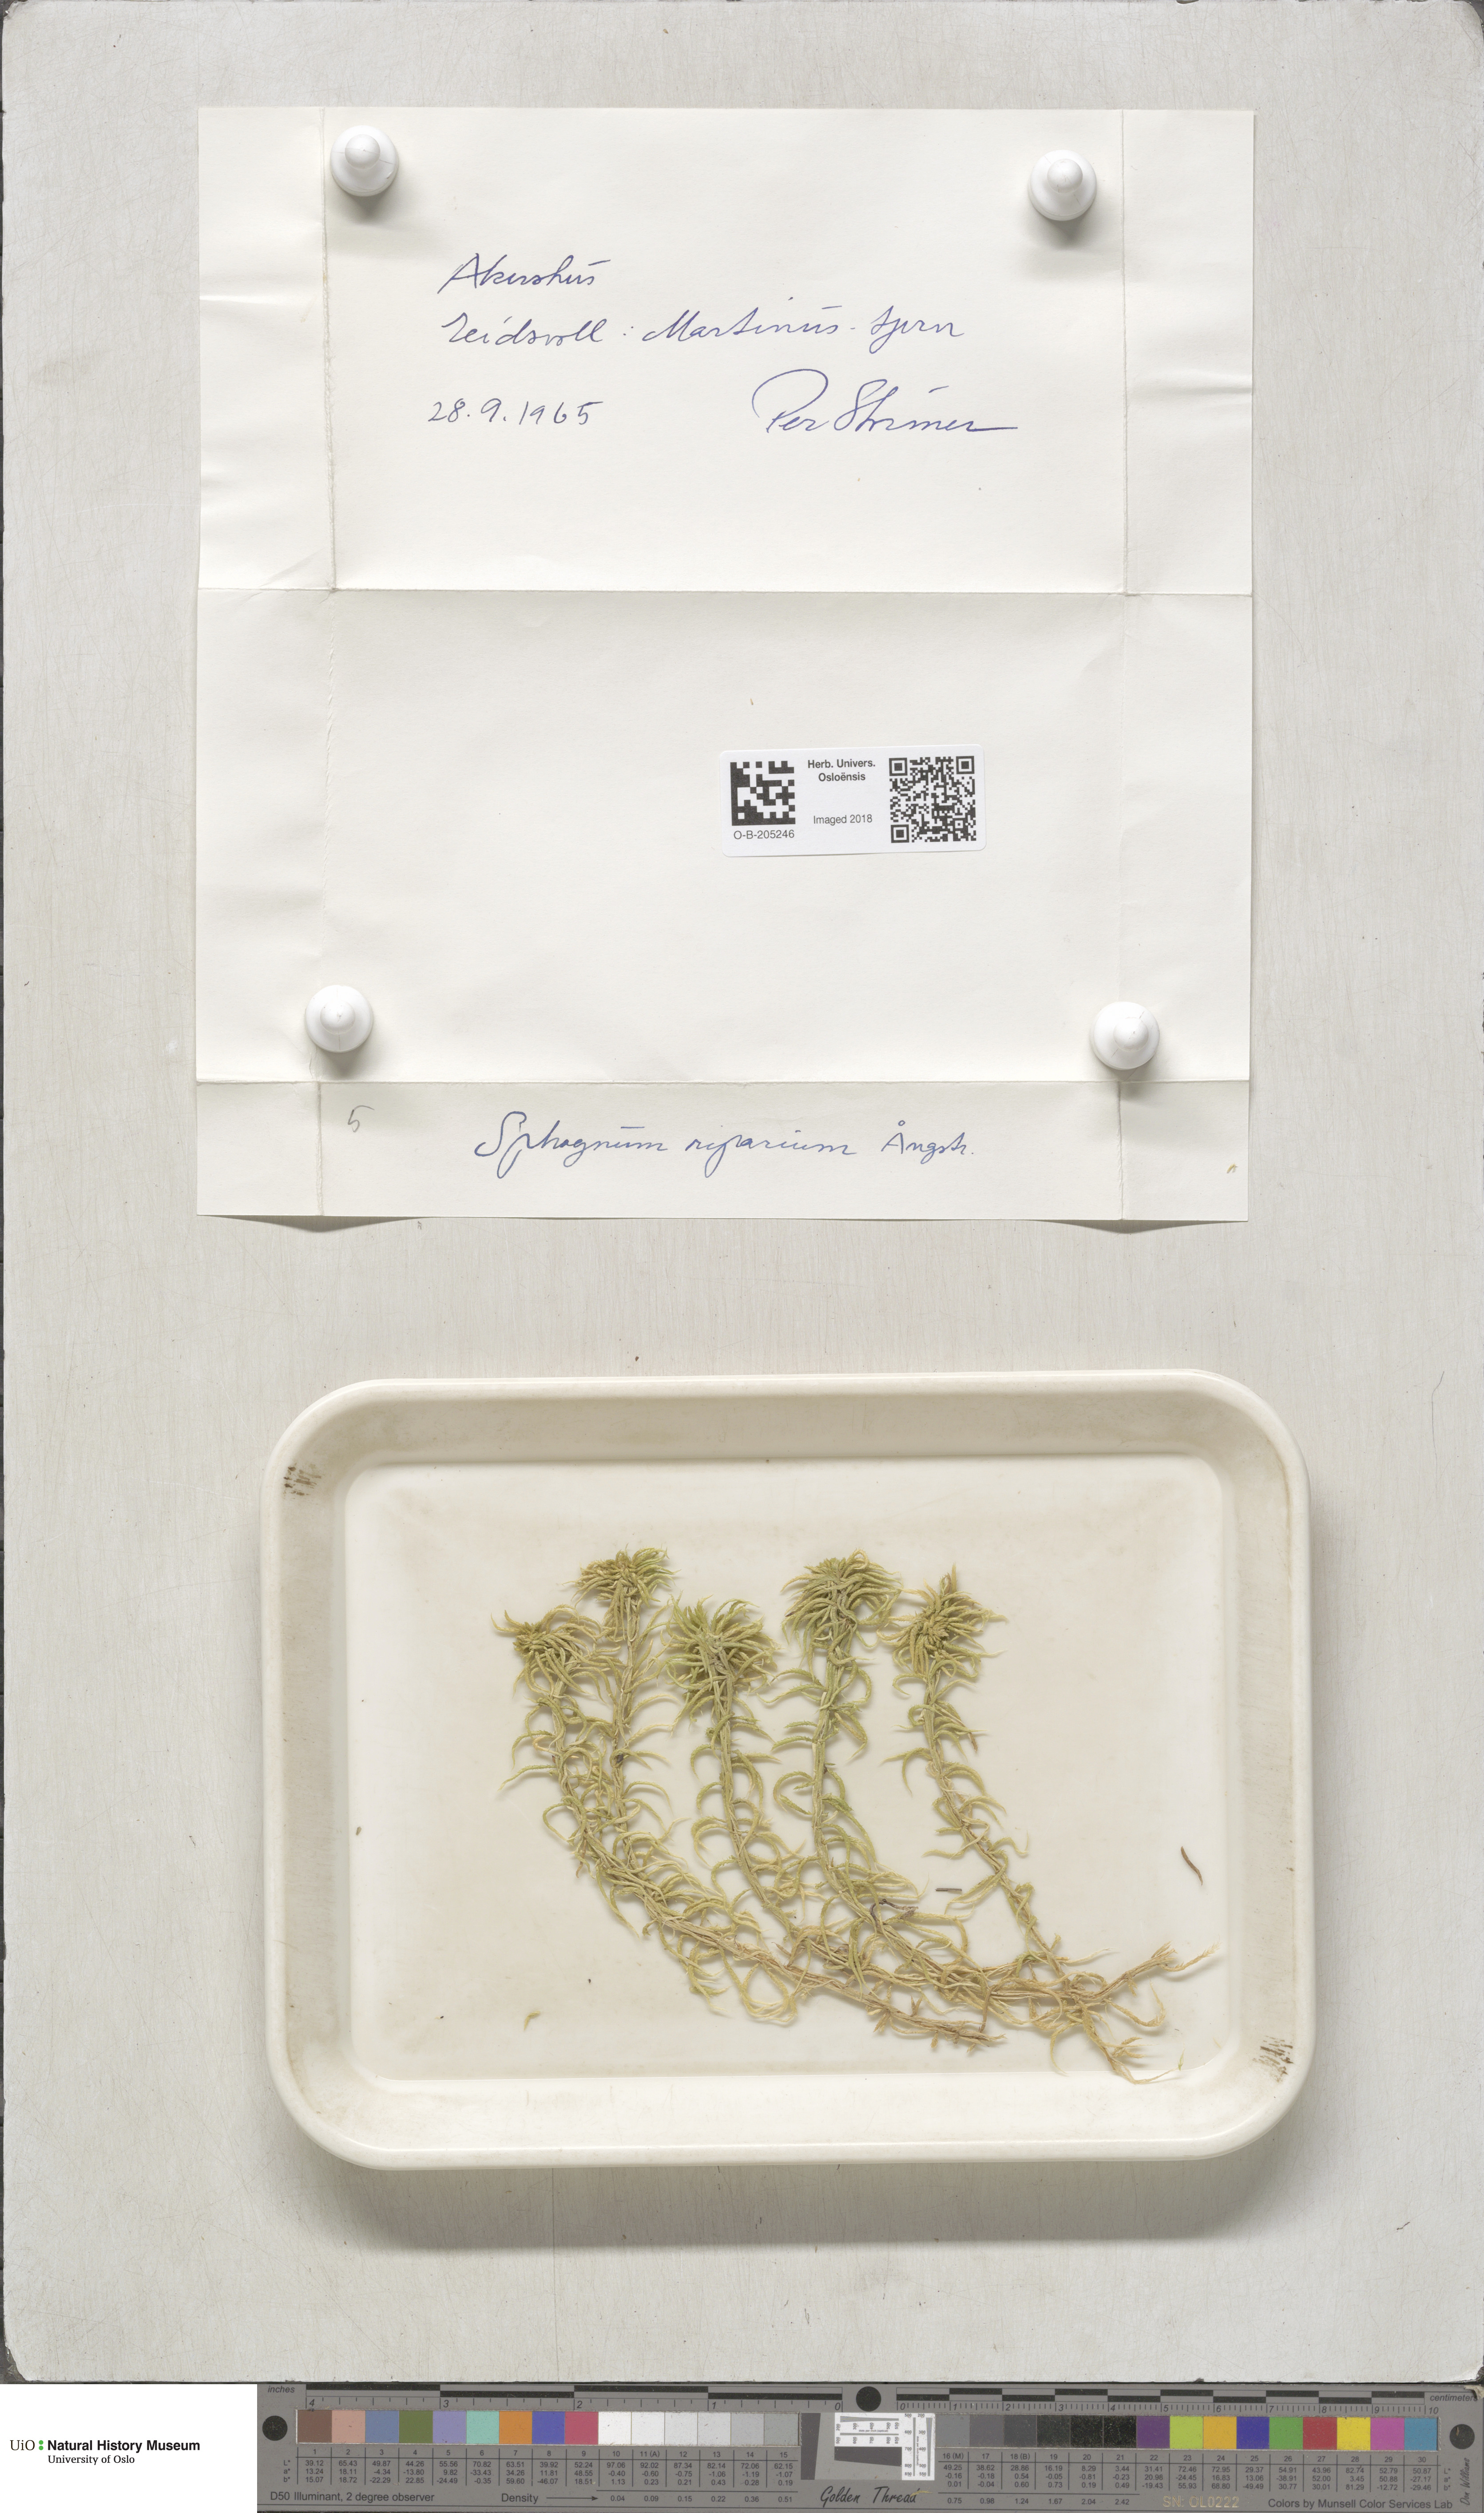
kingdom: Plantae
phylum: Bryophyta
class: Sphagnopsida
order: Sphagnales
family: Sphagnaceae
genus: Sphagnum
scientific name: Sphagnum riparium
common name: Streamside peat moss
